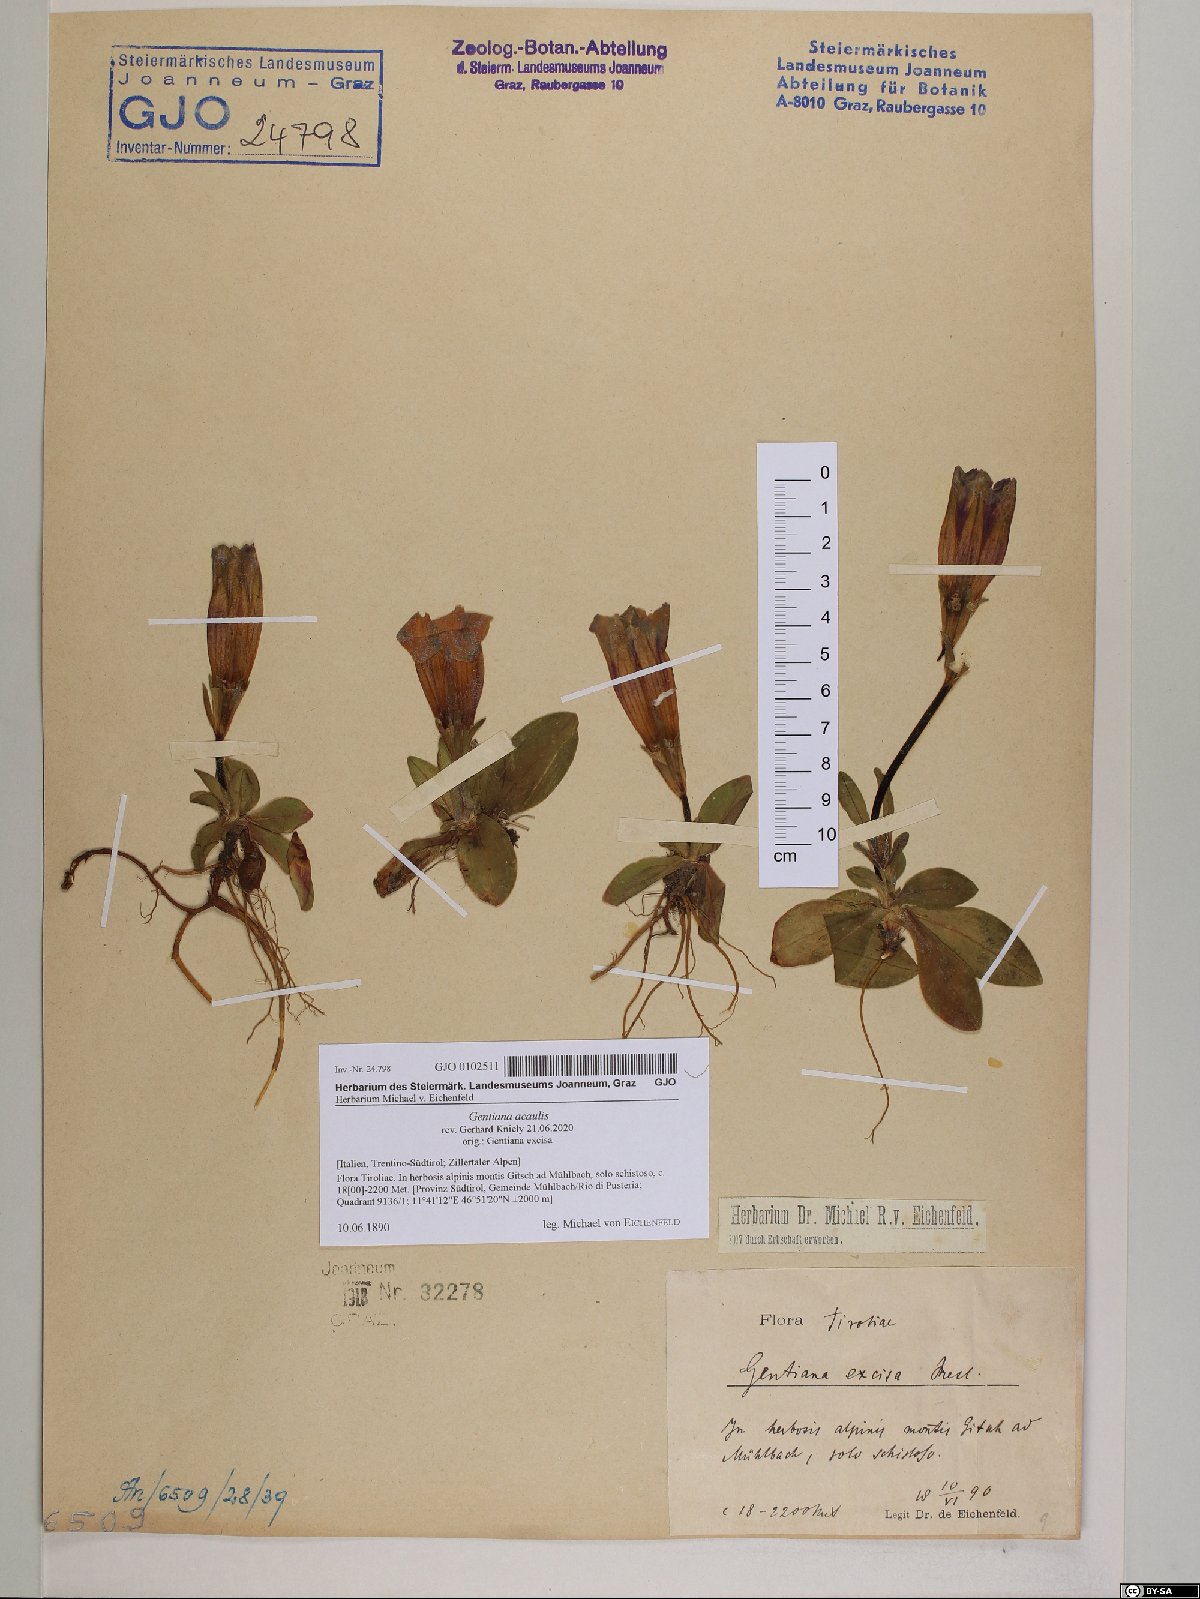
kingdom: Plantae
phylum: Tracheophyta
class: Magnoliopsida
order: Gentianales
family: Gentianaceae
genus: Gentiana
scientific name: Gentiana acaulis
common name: Trumpet gentian
